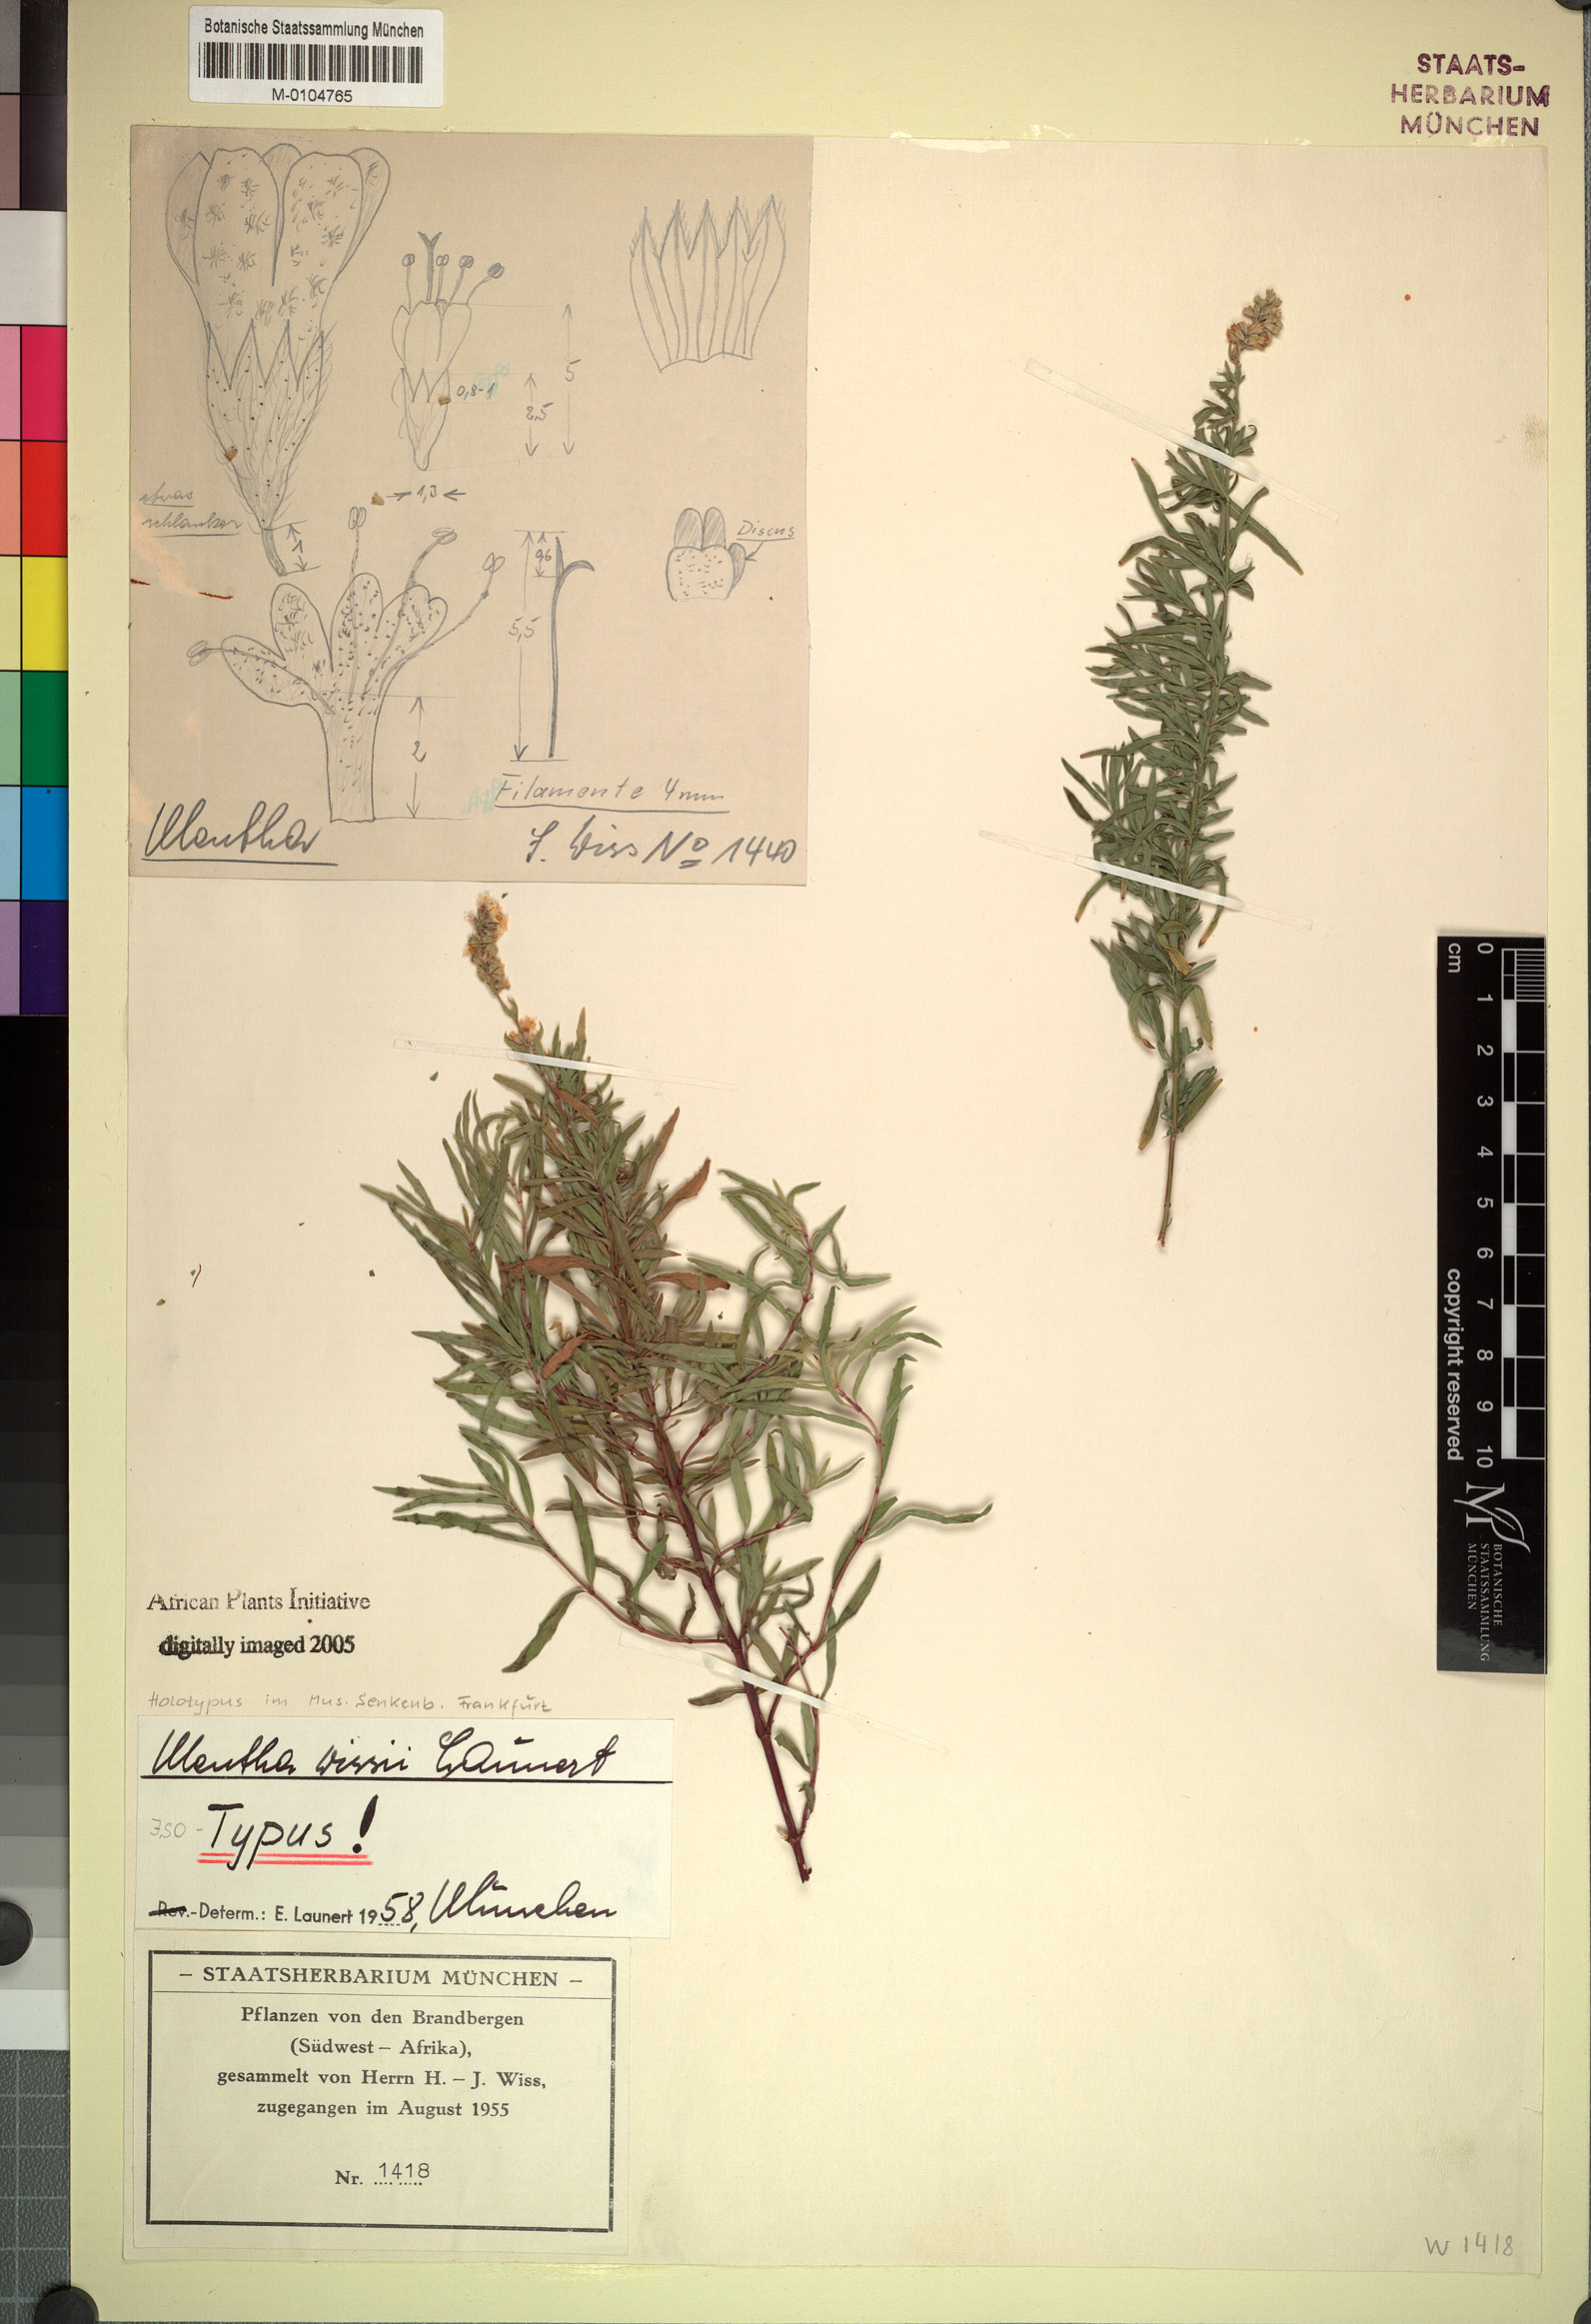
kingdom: Plantae
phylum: Tracheophyta
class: Magnoliopsida
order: Lamiales
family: Lamiaceae
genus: Mentha
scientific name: Mentha longifolia
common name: Horse mint
